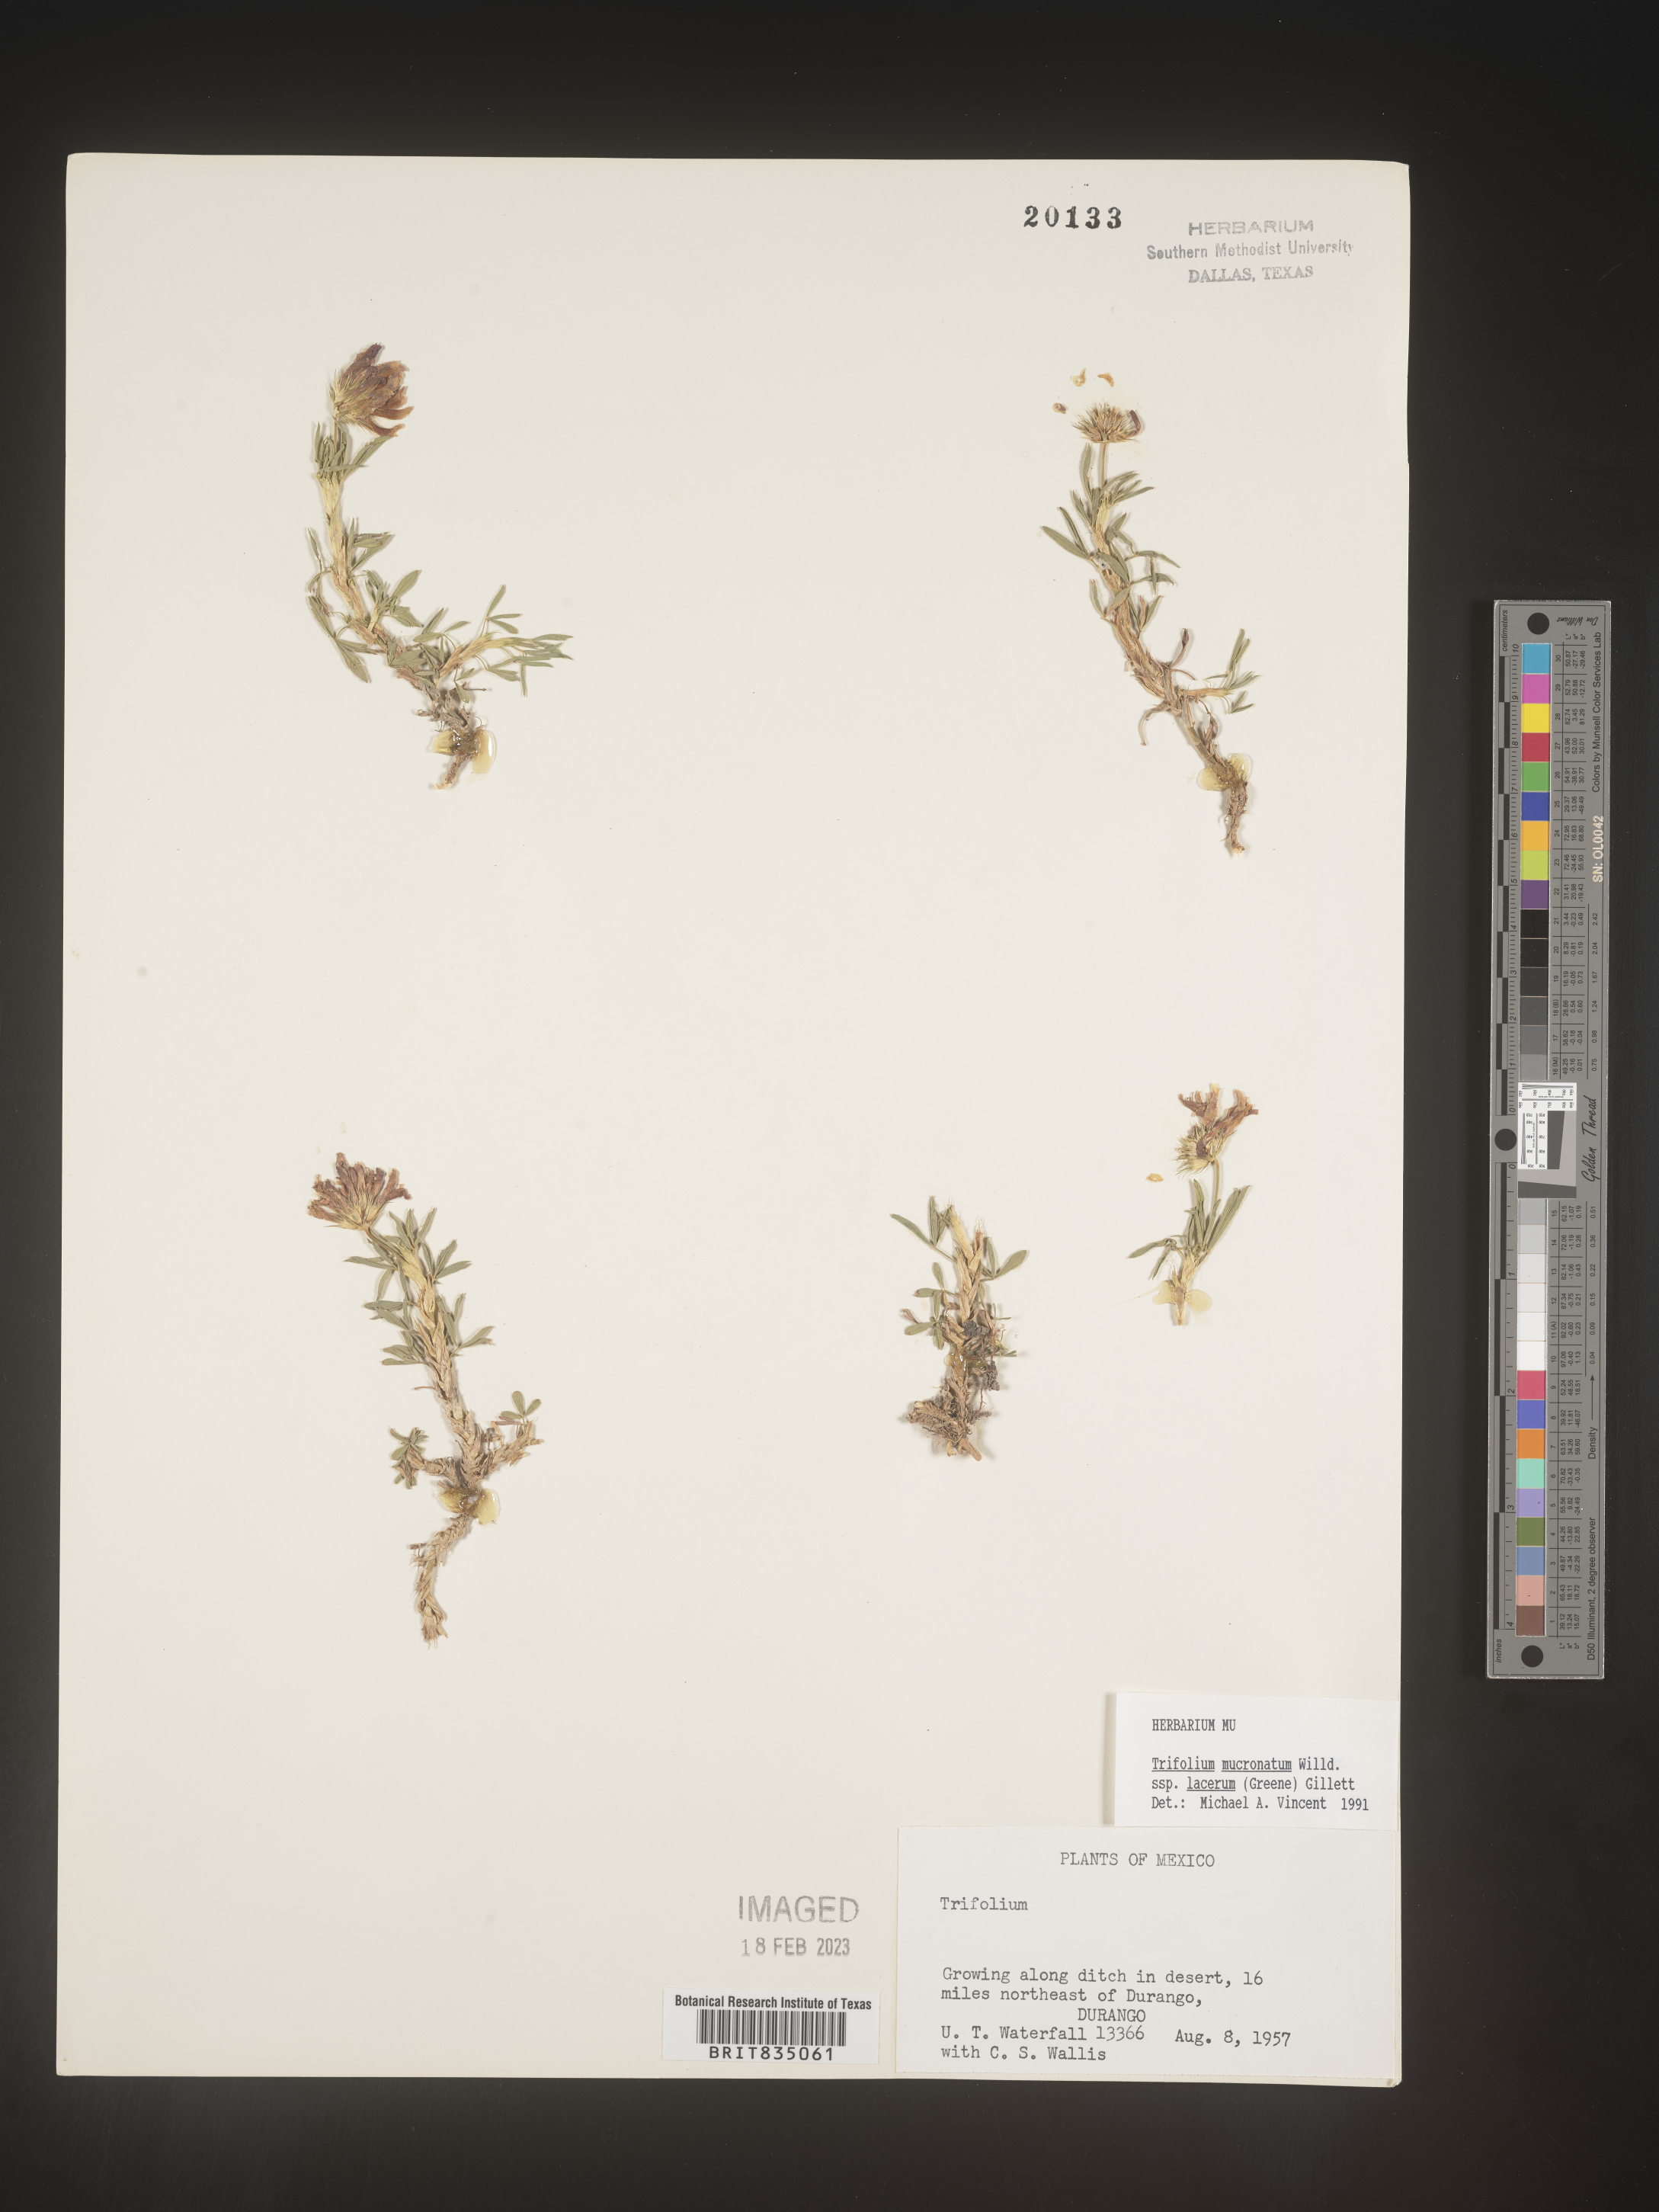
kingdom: Plantae
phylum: Tracheophyta
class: Magnoliopsida
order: Fabales
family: Fabaceae
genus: Trifolium
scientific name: Trifolium
